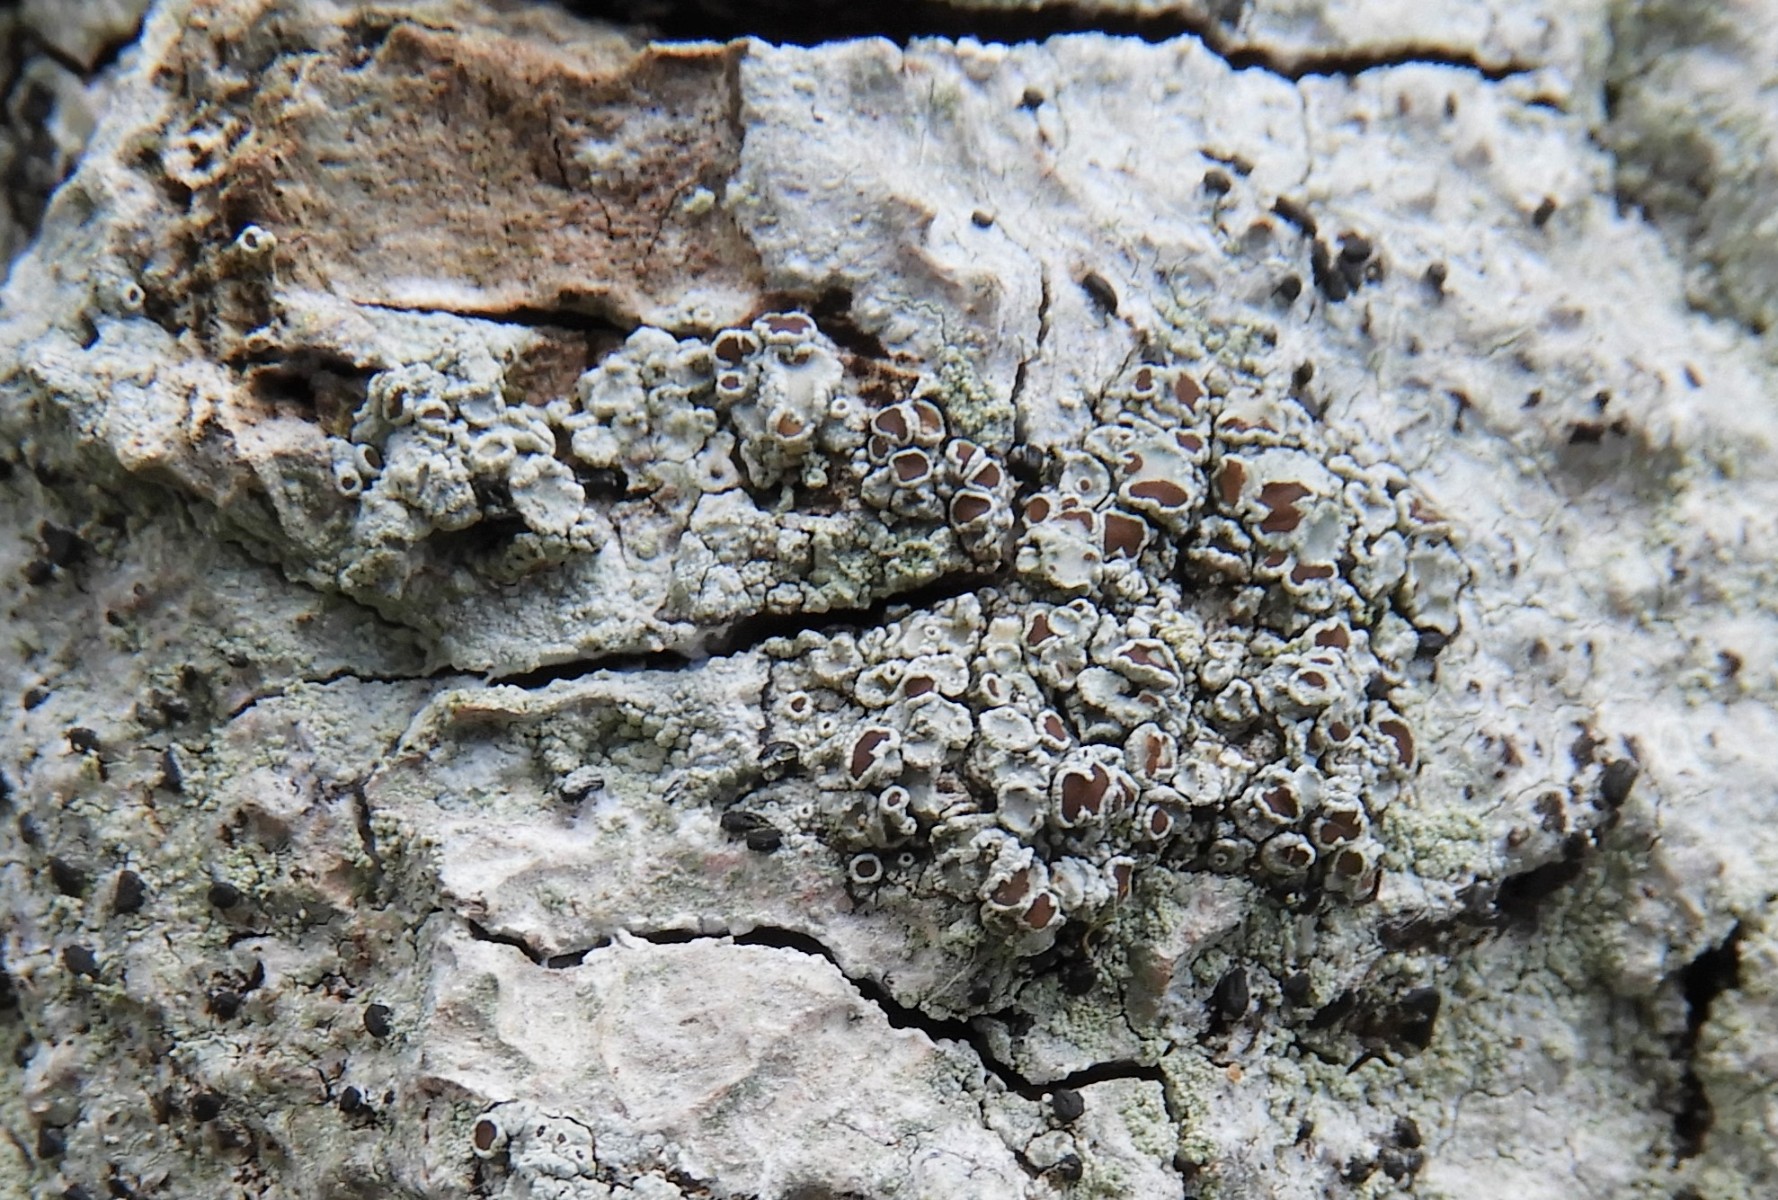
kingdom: Fungi
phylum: Ascomycota
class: Lecanoromycetes
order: Lecanorales
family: Lecanoraceae
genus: Lecanora
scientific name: Lecanora argentata
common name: sølv-kantskivelav
